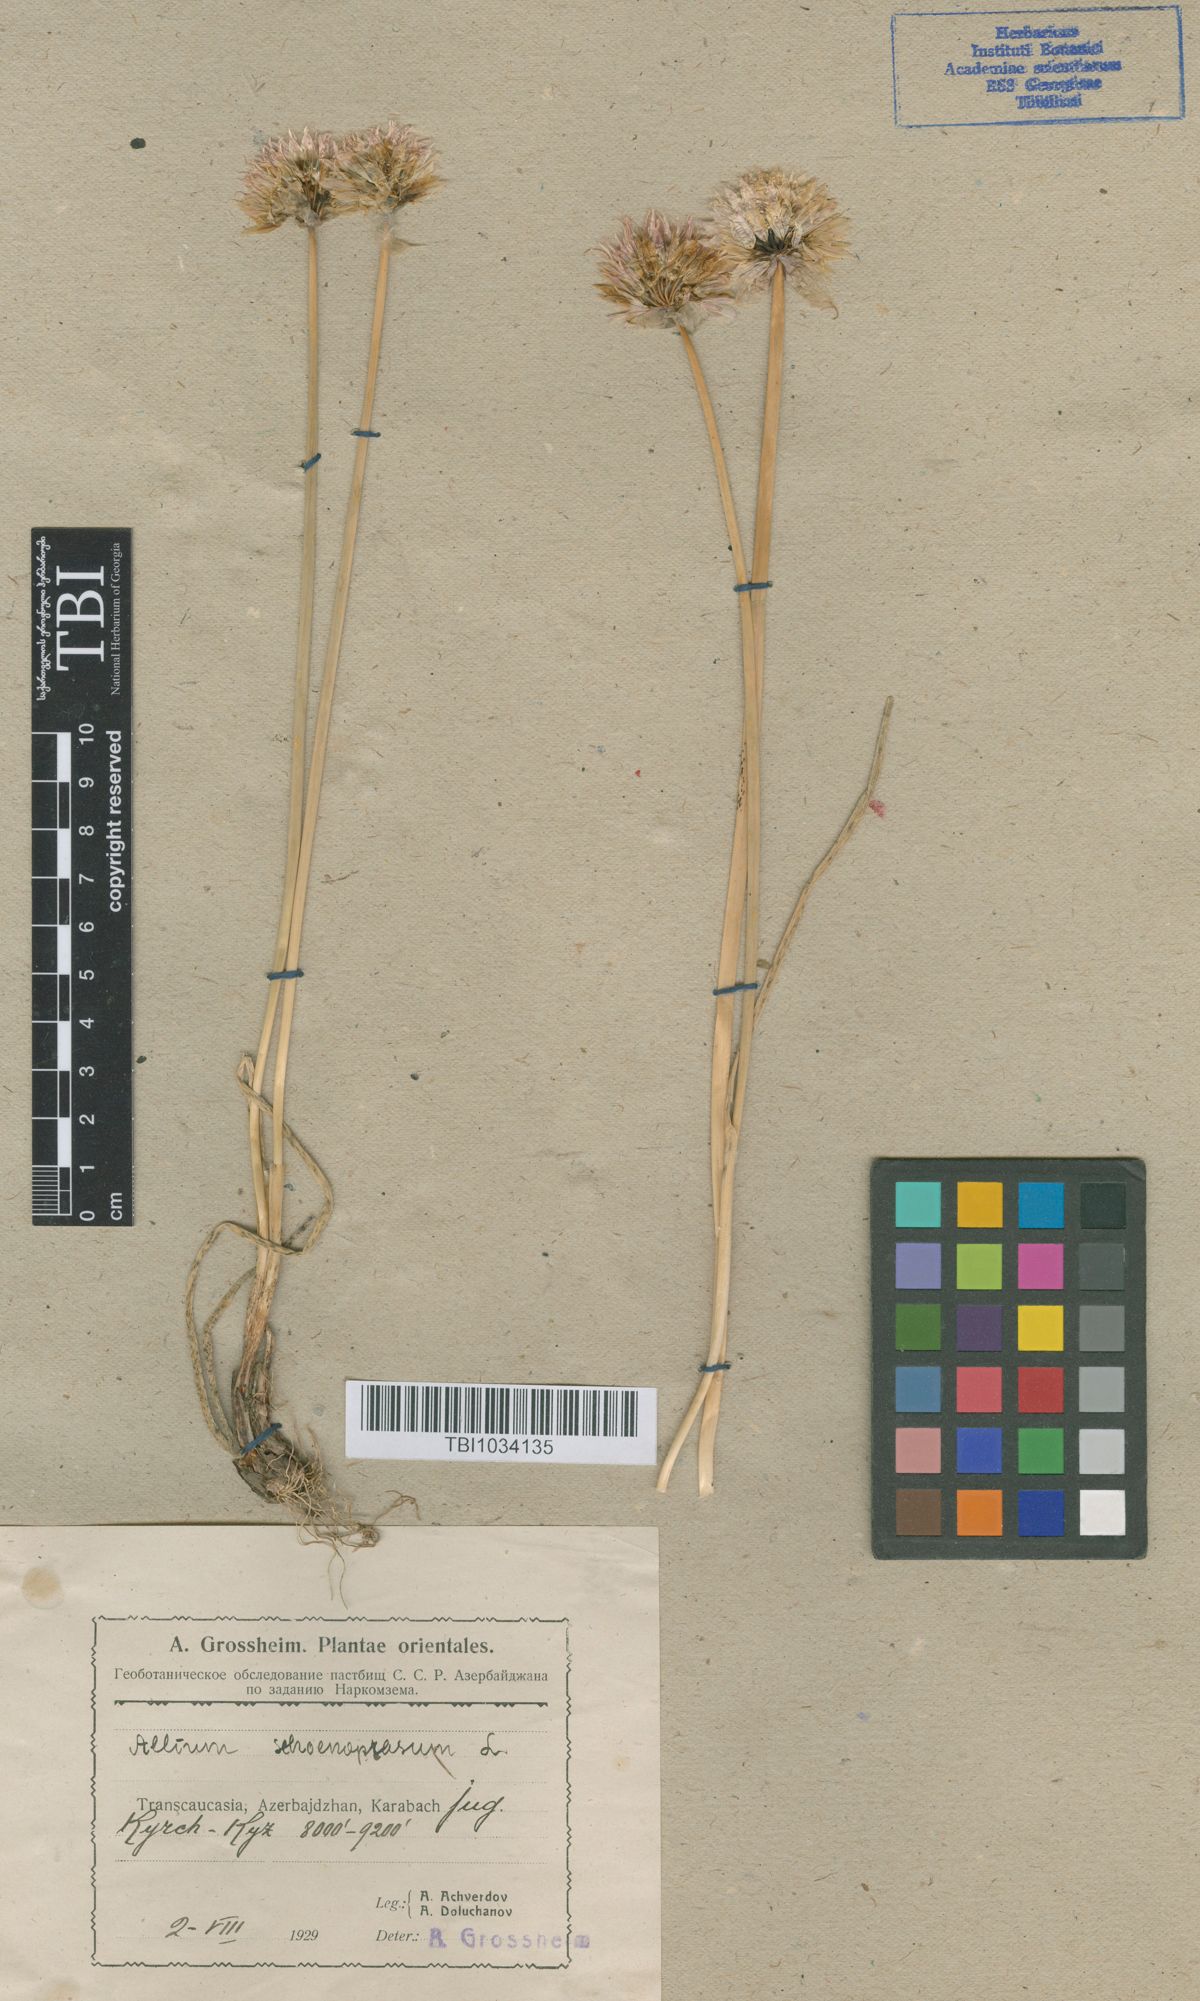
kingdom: Plantae
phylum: Tracheophyta
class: Liliopsida
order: Asparagales
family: Amaryllidaceae
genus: Allium
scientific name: Allium schoenoprasum
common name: Chives
